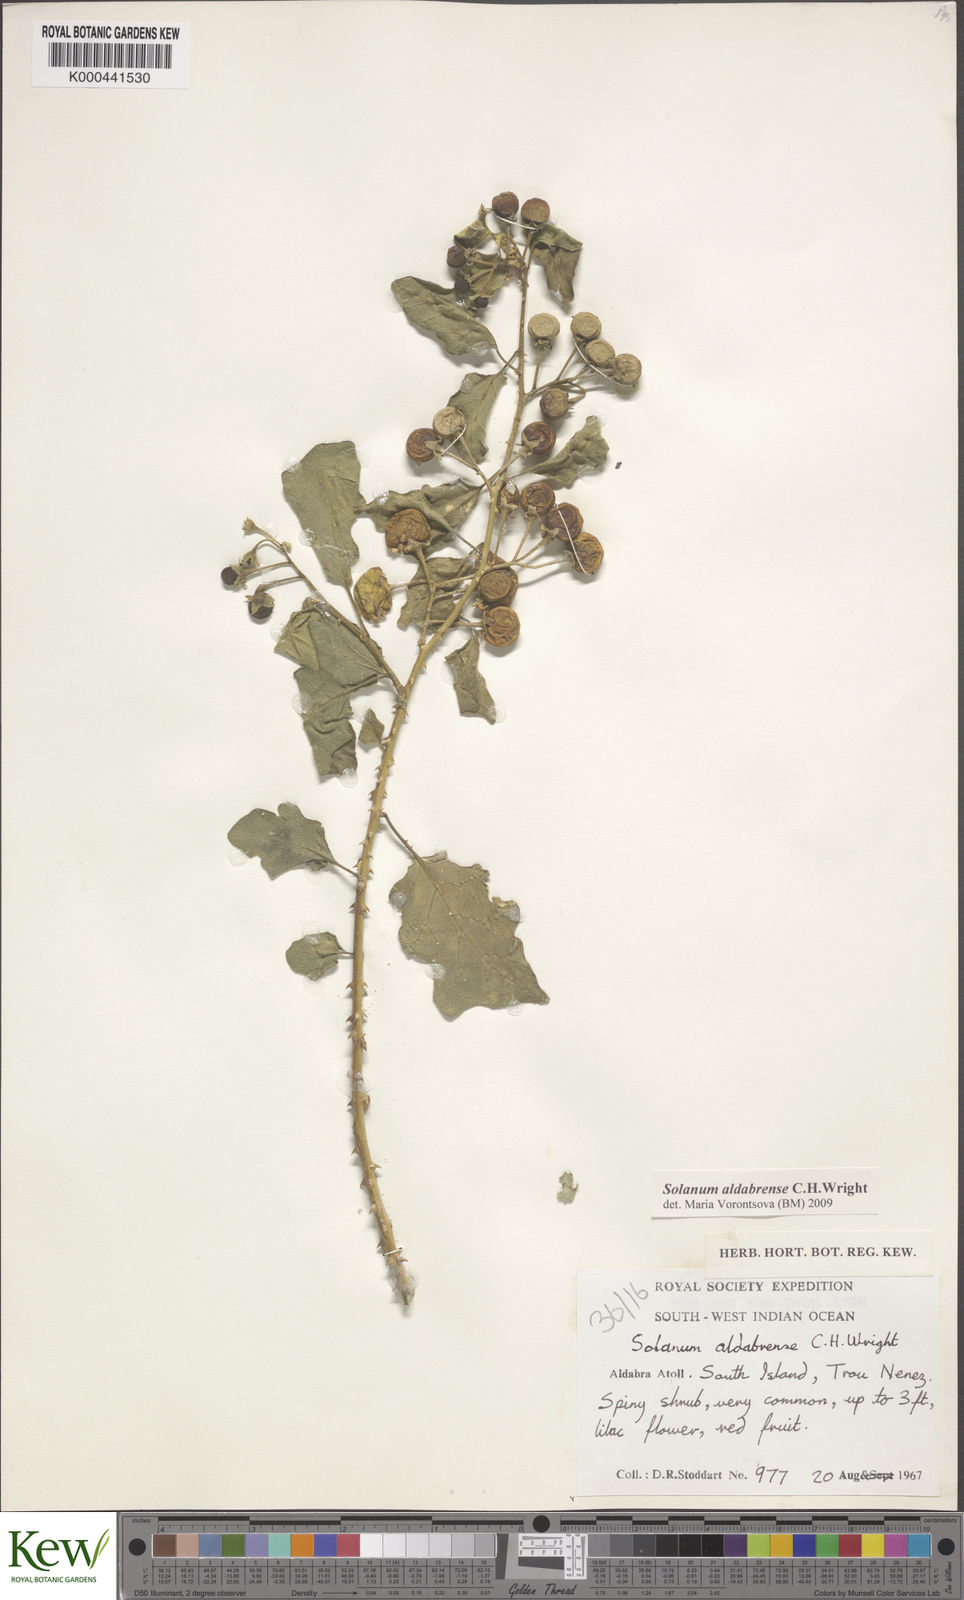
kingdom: Plantae
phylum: Tracheophyta
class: Magnoliopsida
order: Solanales
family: Solanaceae
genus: Solanum
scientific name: Solanum aldabrense
